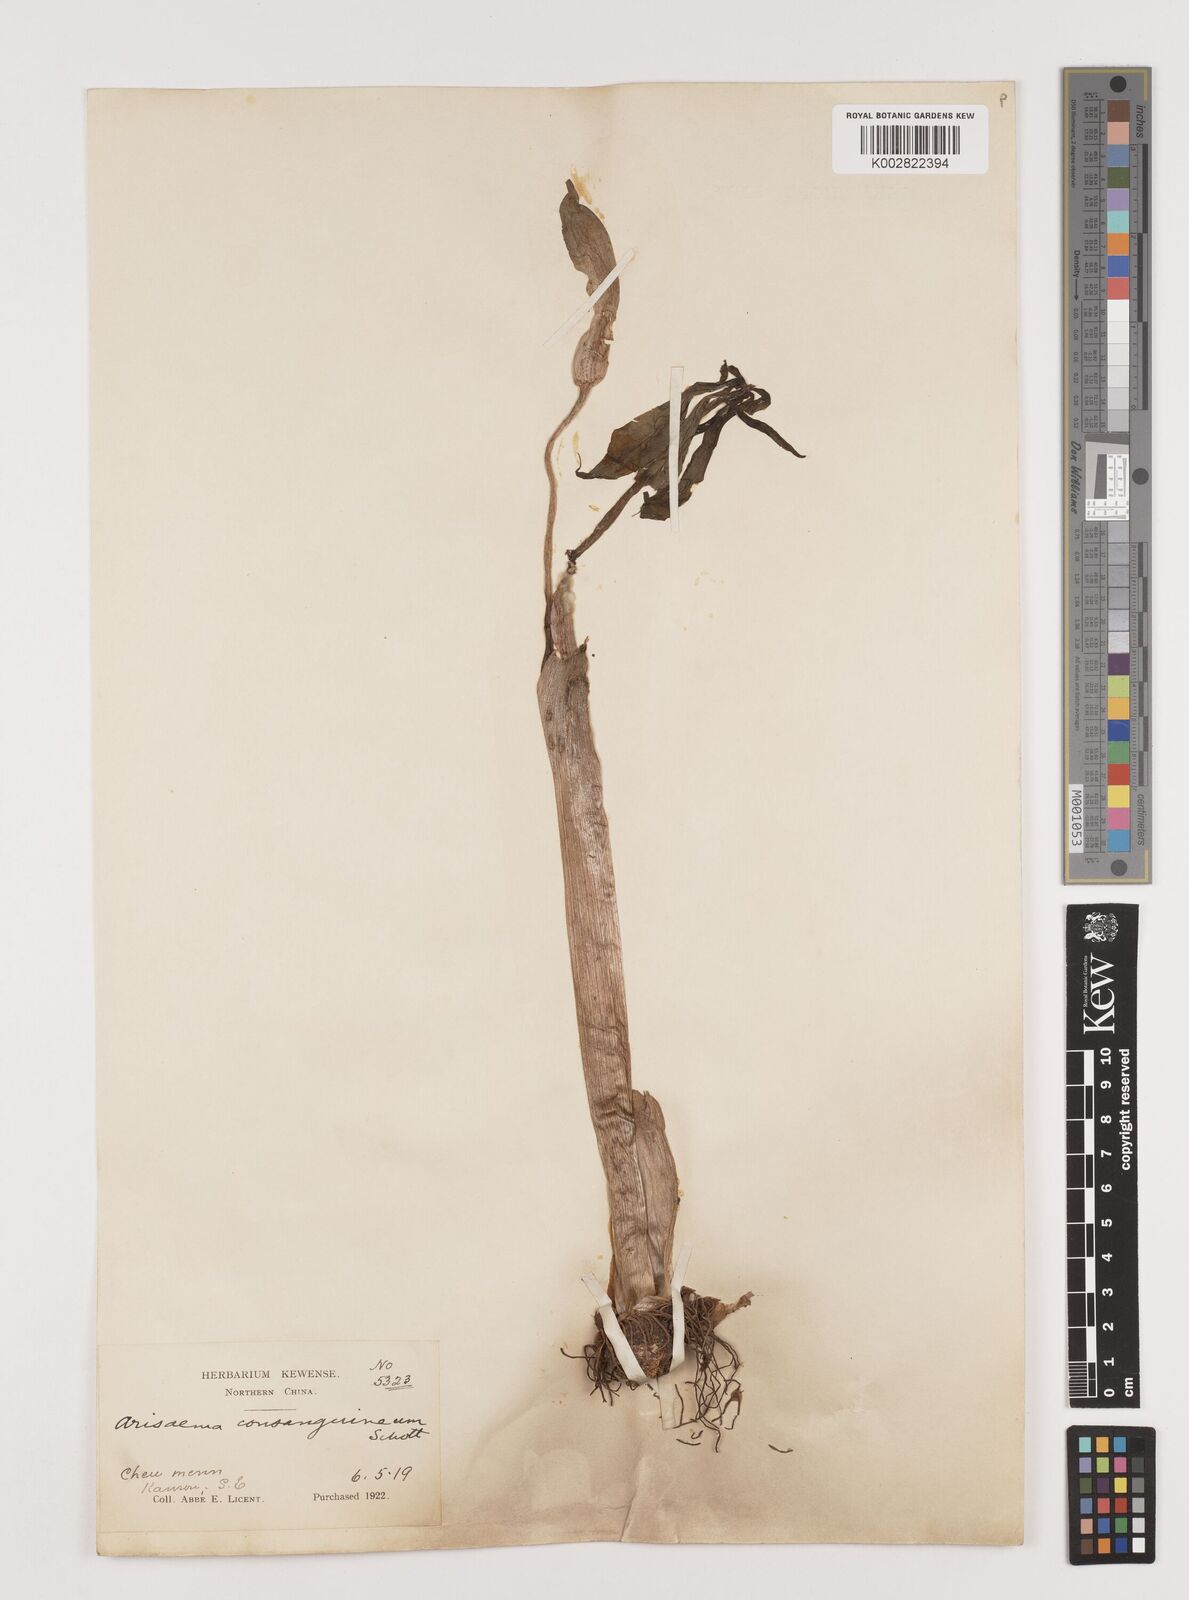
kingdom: Plantae
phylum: Tracheophyta
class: Liliopsida
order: Alismatales
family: Araceae
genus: Arisaema
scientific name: Arisaema erubescens
